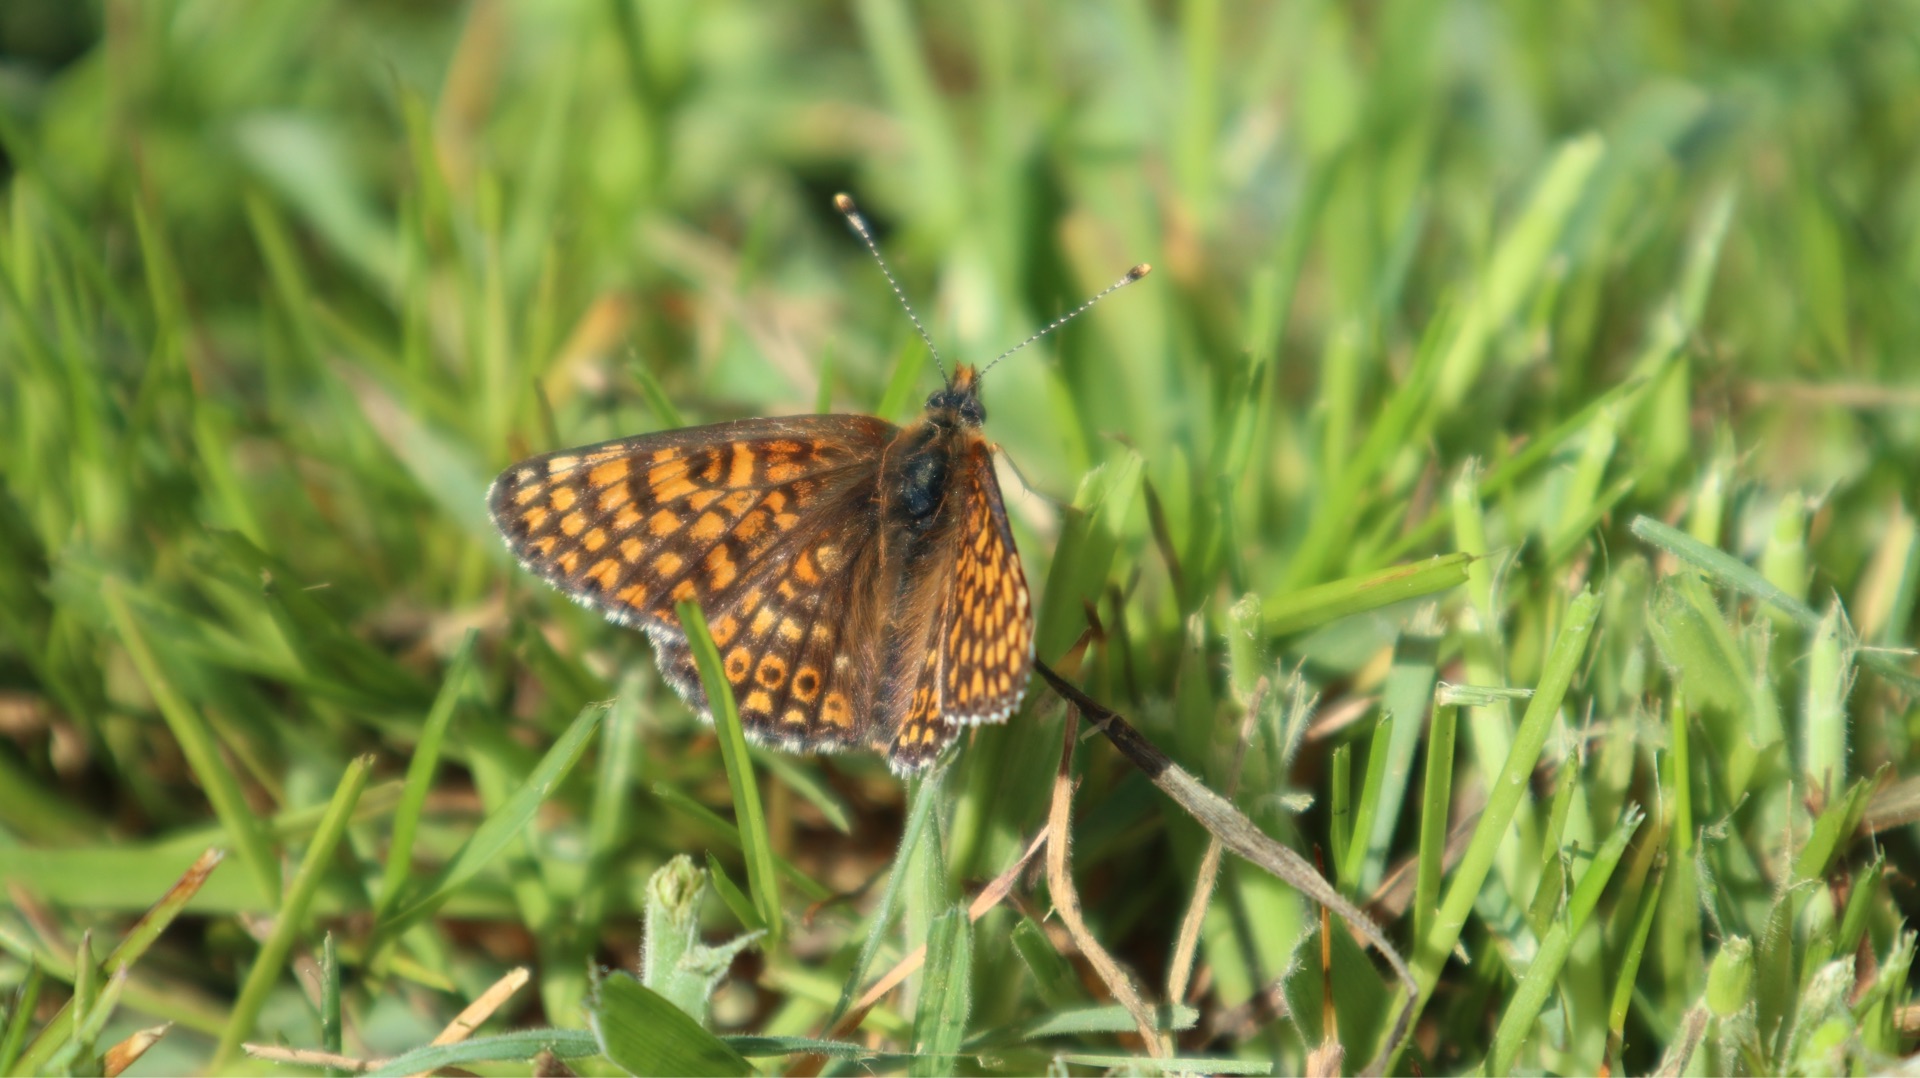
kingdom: Animalia
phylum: Arthropoda
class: Insecta
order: Lepidoptera
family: Nymphalidae
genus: Melitaea
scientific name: Melitaea cinxia
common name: Okkergul pletvinge
